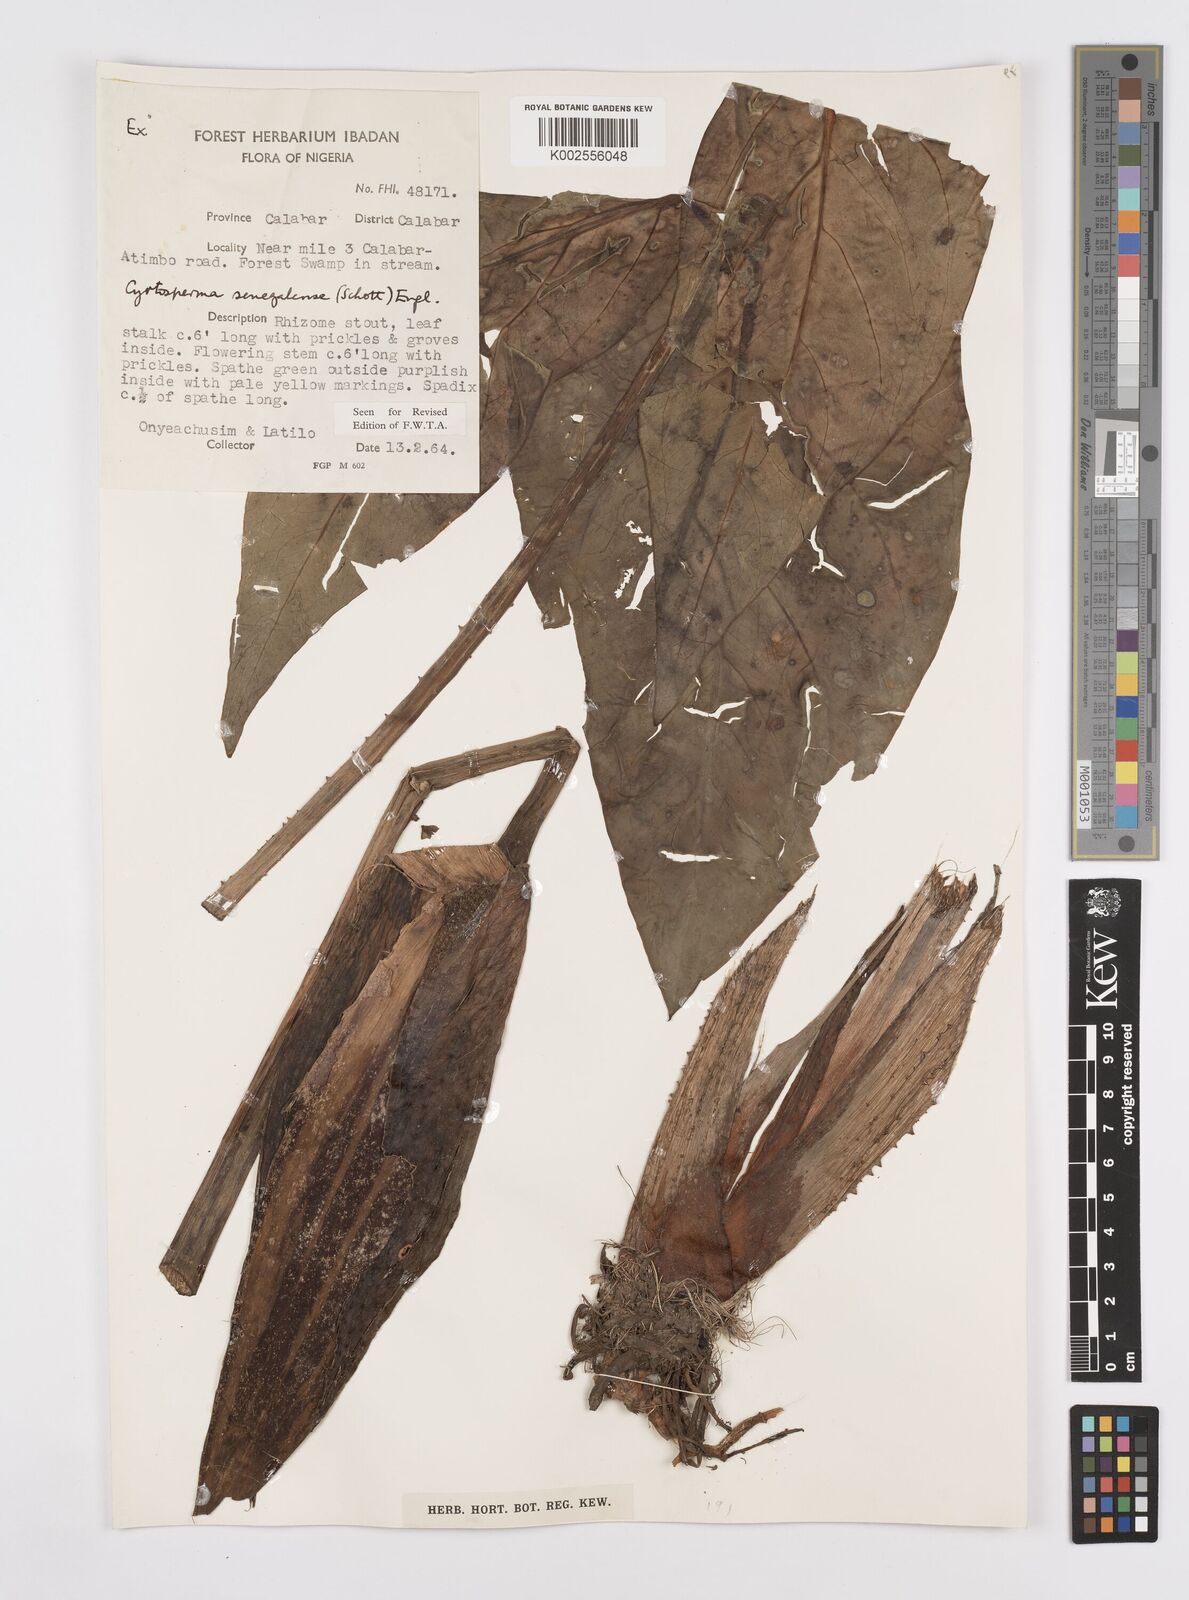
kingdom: Plantae
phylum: Tracheophyta
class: Liliopsida
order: Alismatales
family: Araceae
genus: Lasimorpha
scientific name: Lasimorpha senegalensis
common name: Swamp arum
